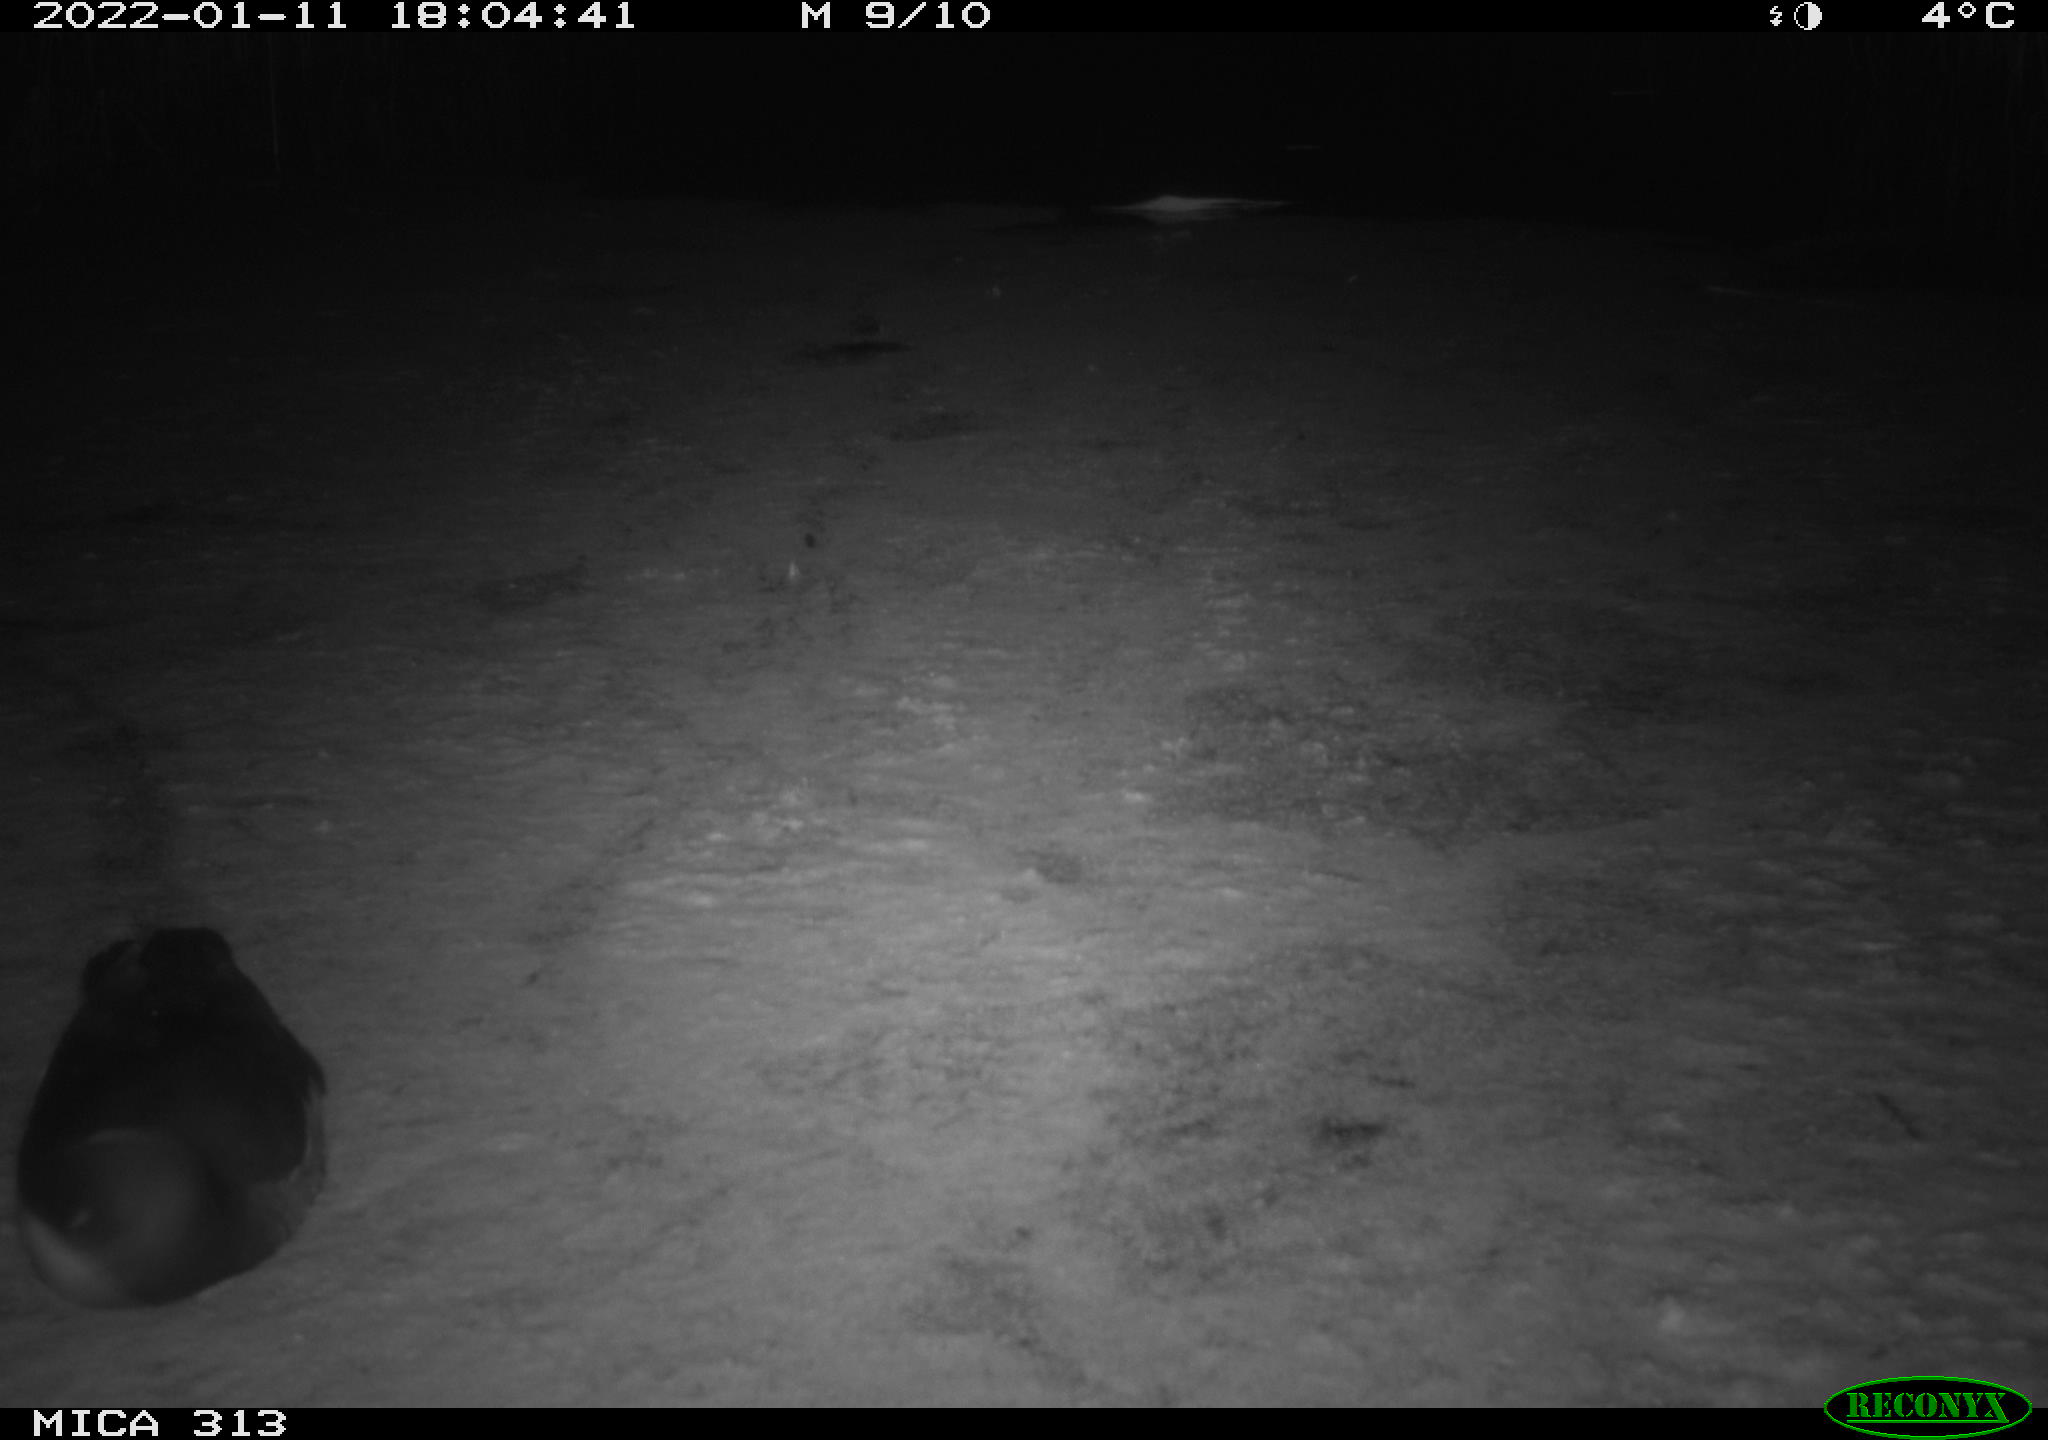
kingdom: Animalia
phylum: Chordata
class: Aves
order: Gruiformes
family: Rallidae
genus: Gallinula
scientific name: Gallinula chloropus
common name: Common moorhen
